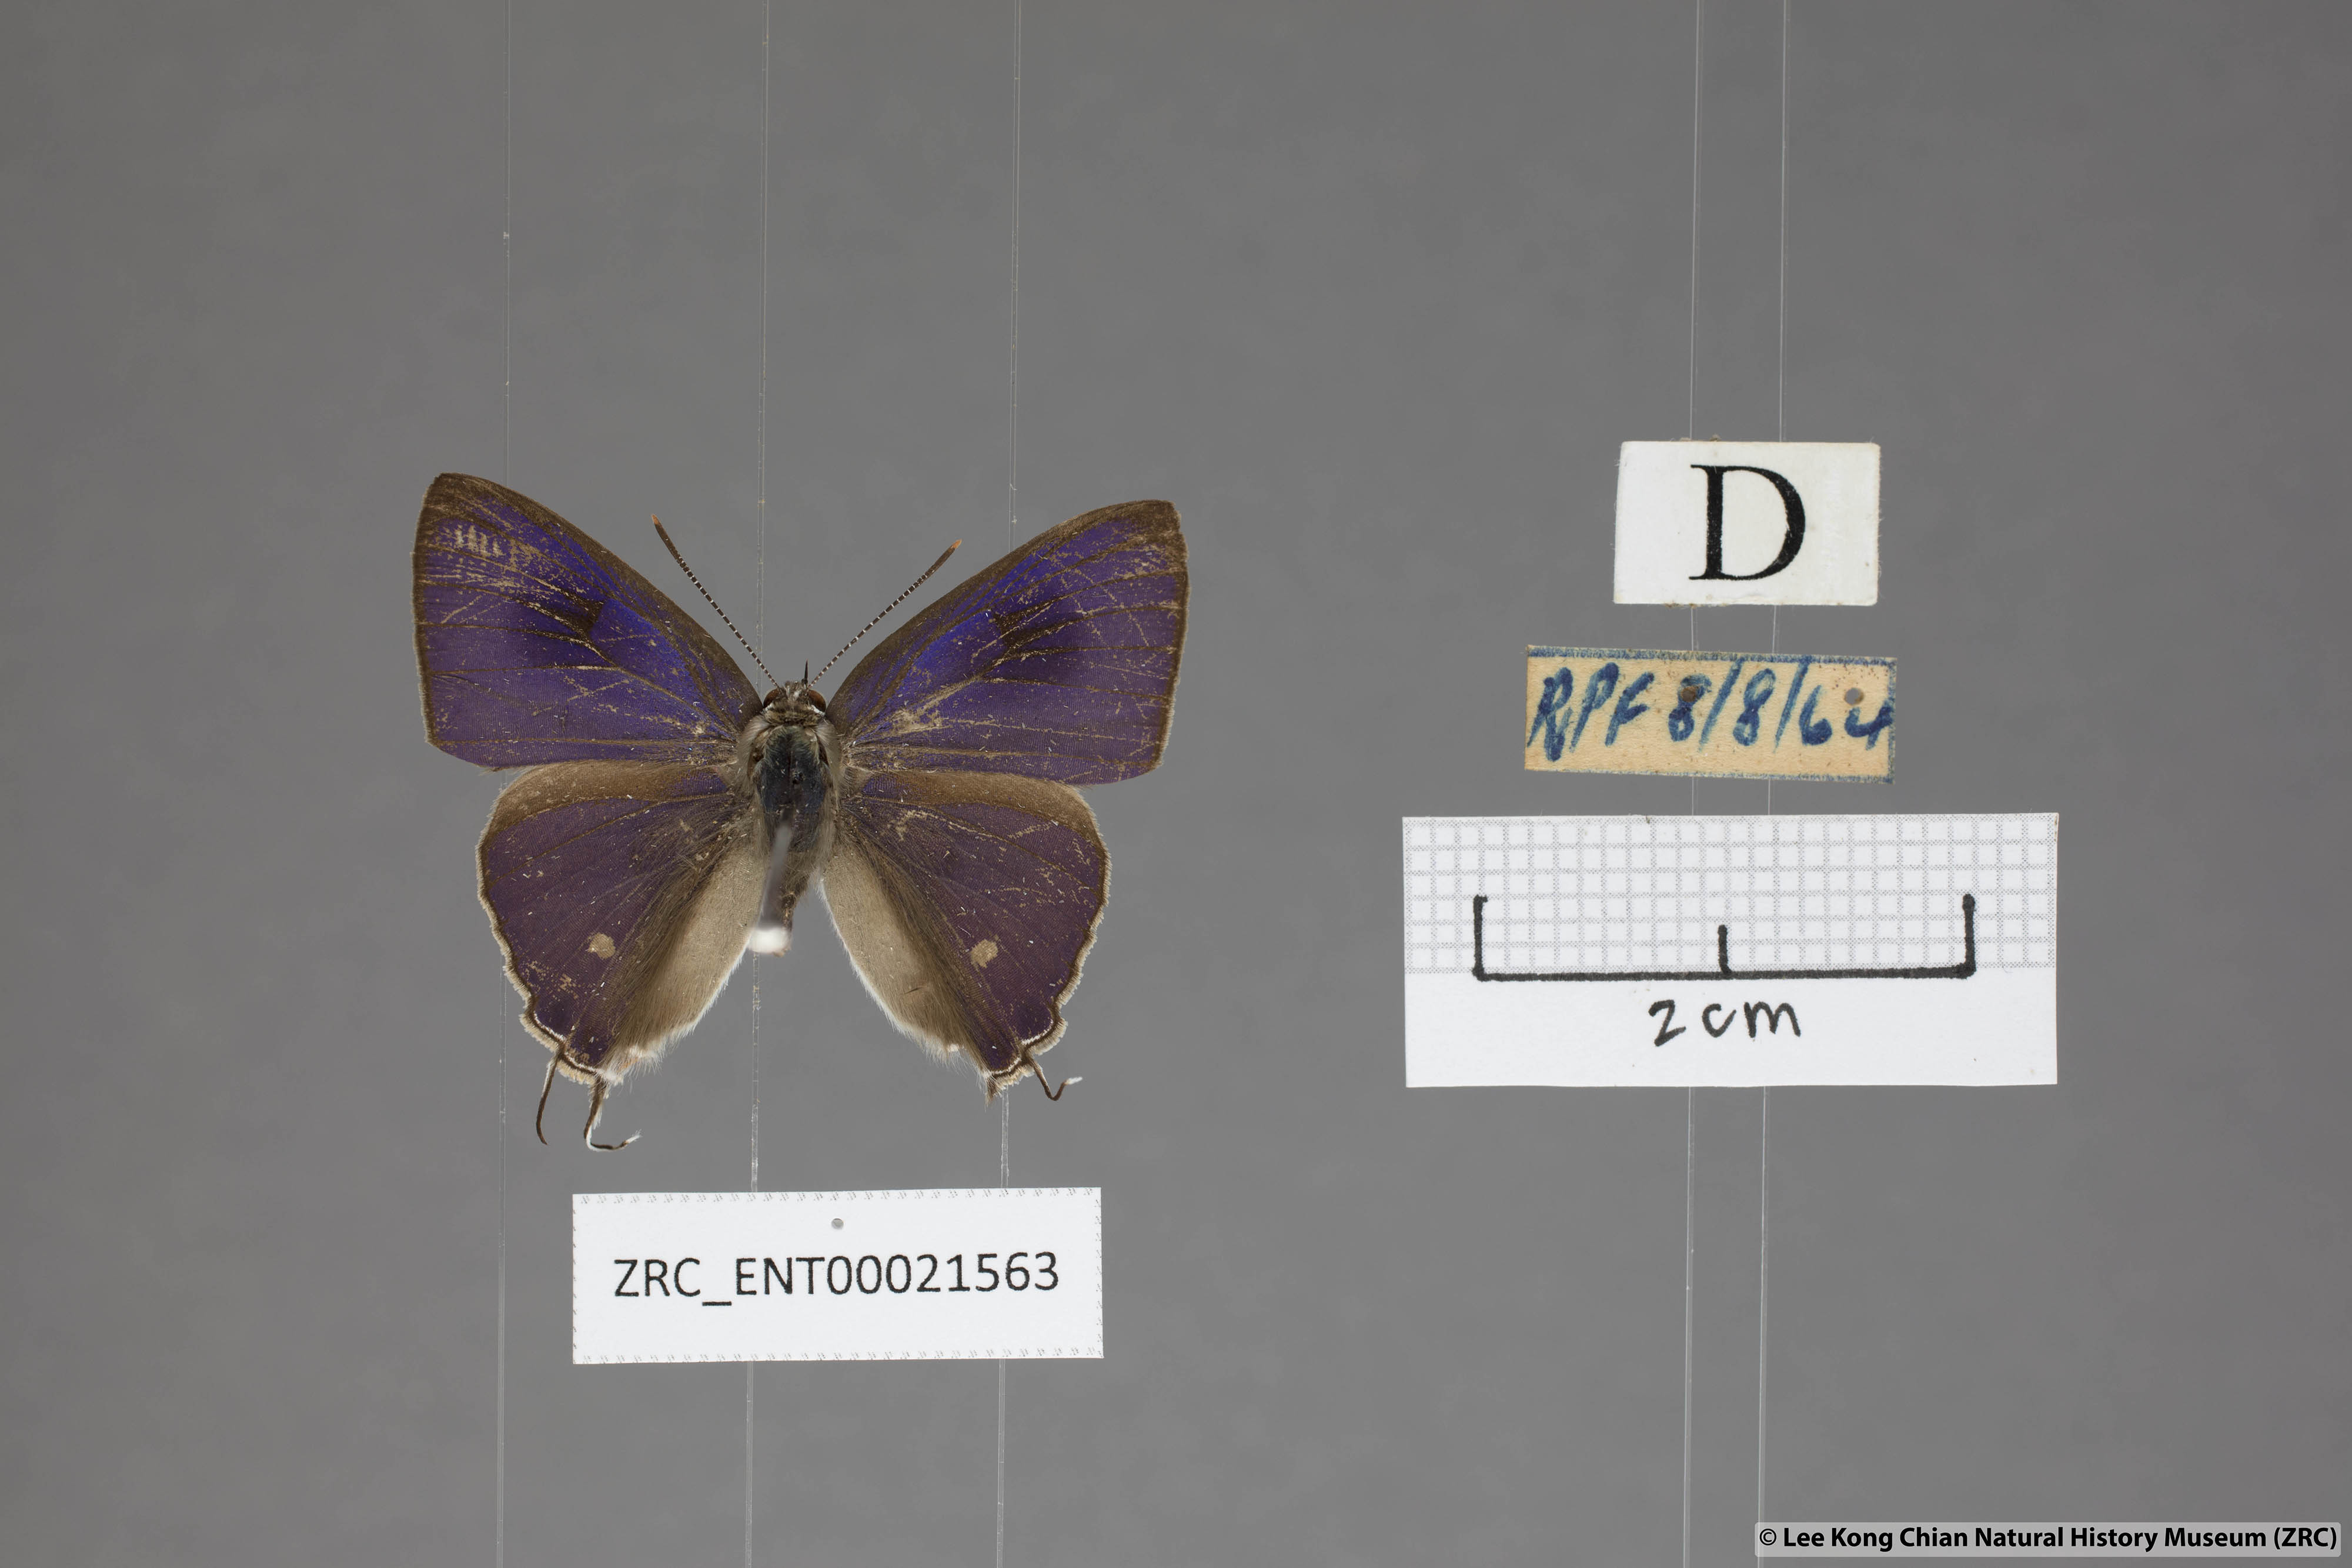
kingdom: Animalia
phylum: Arthropoda
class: Insecta
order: Lepidoptera
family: Lycaenidae
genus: Hypolycaena
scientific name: Hypolycaena erylus
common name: Common tit
